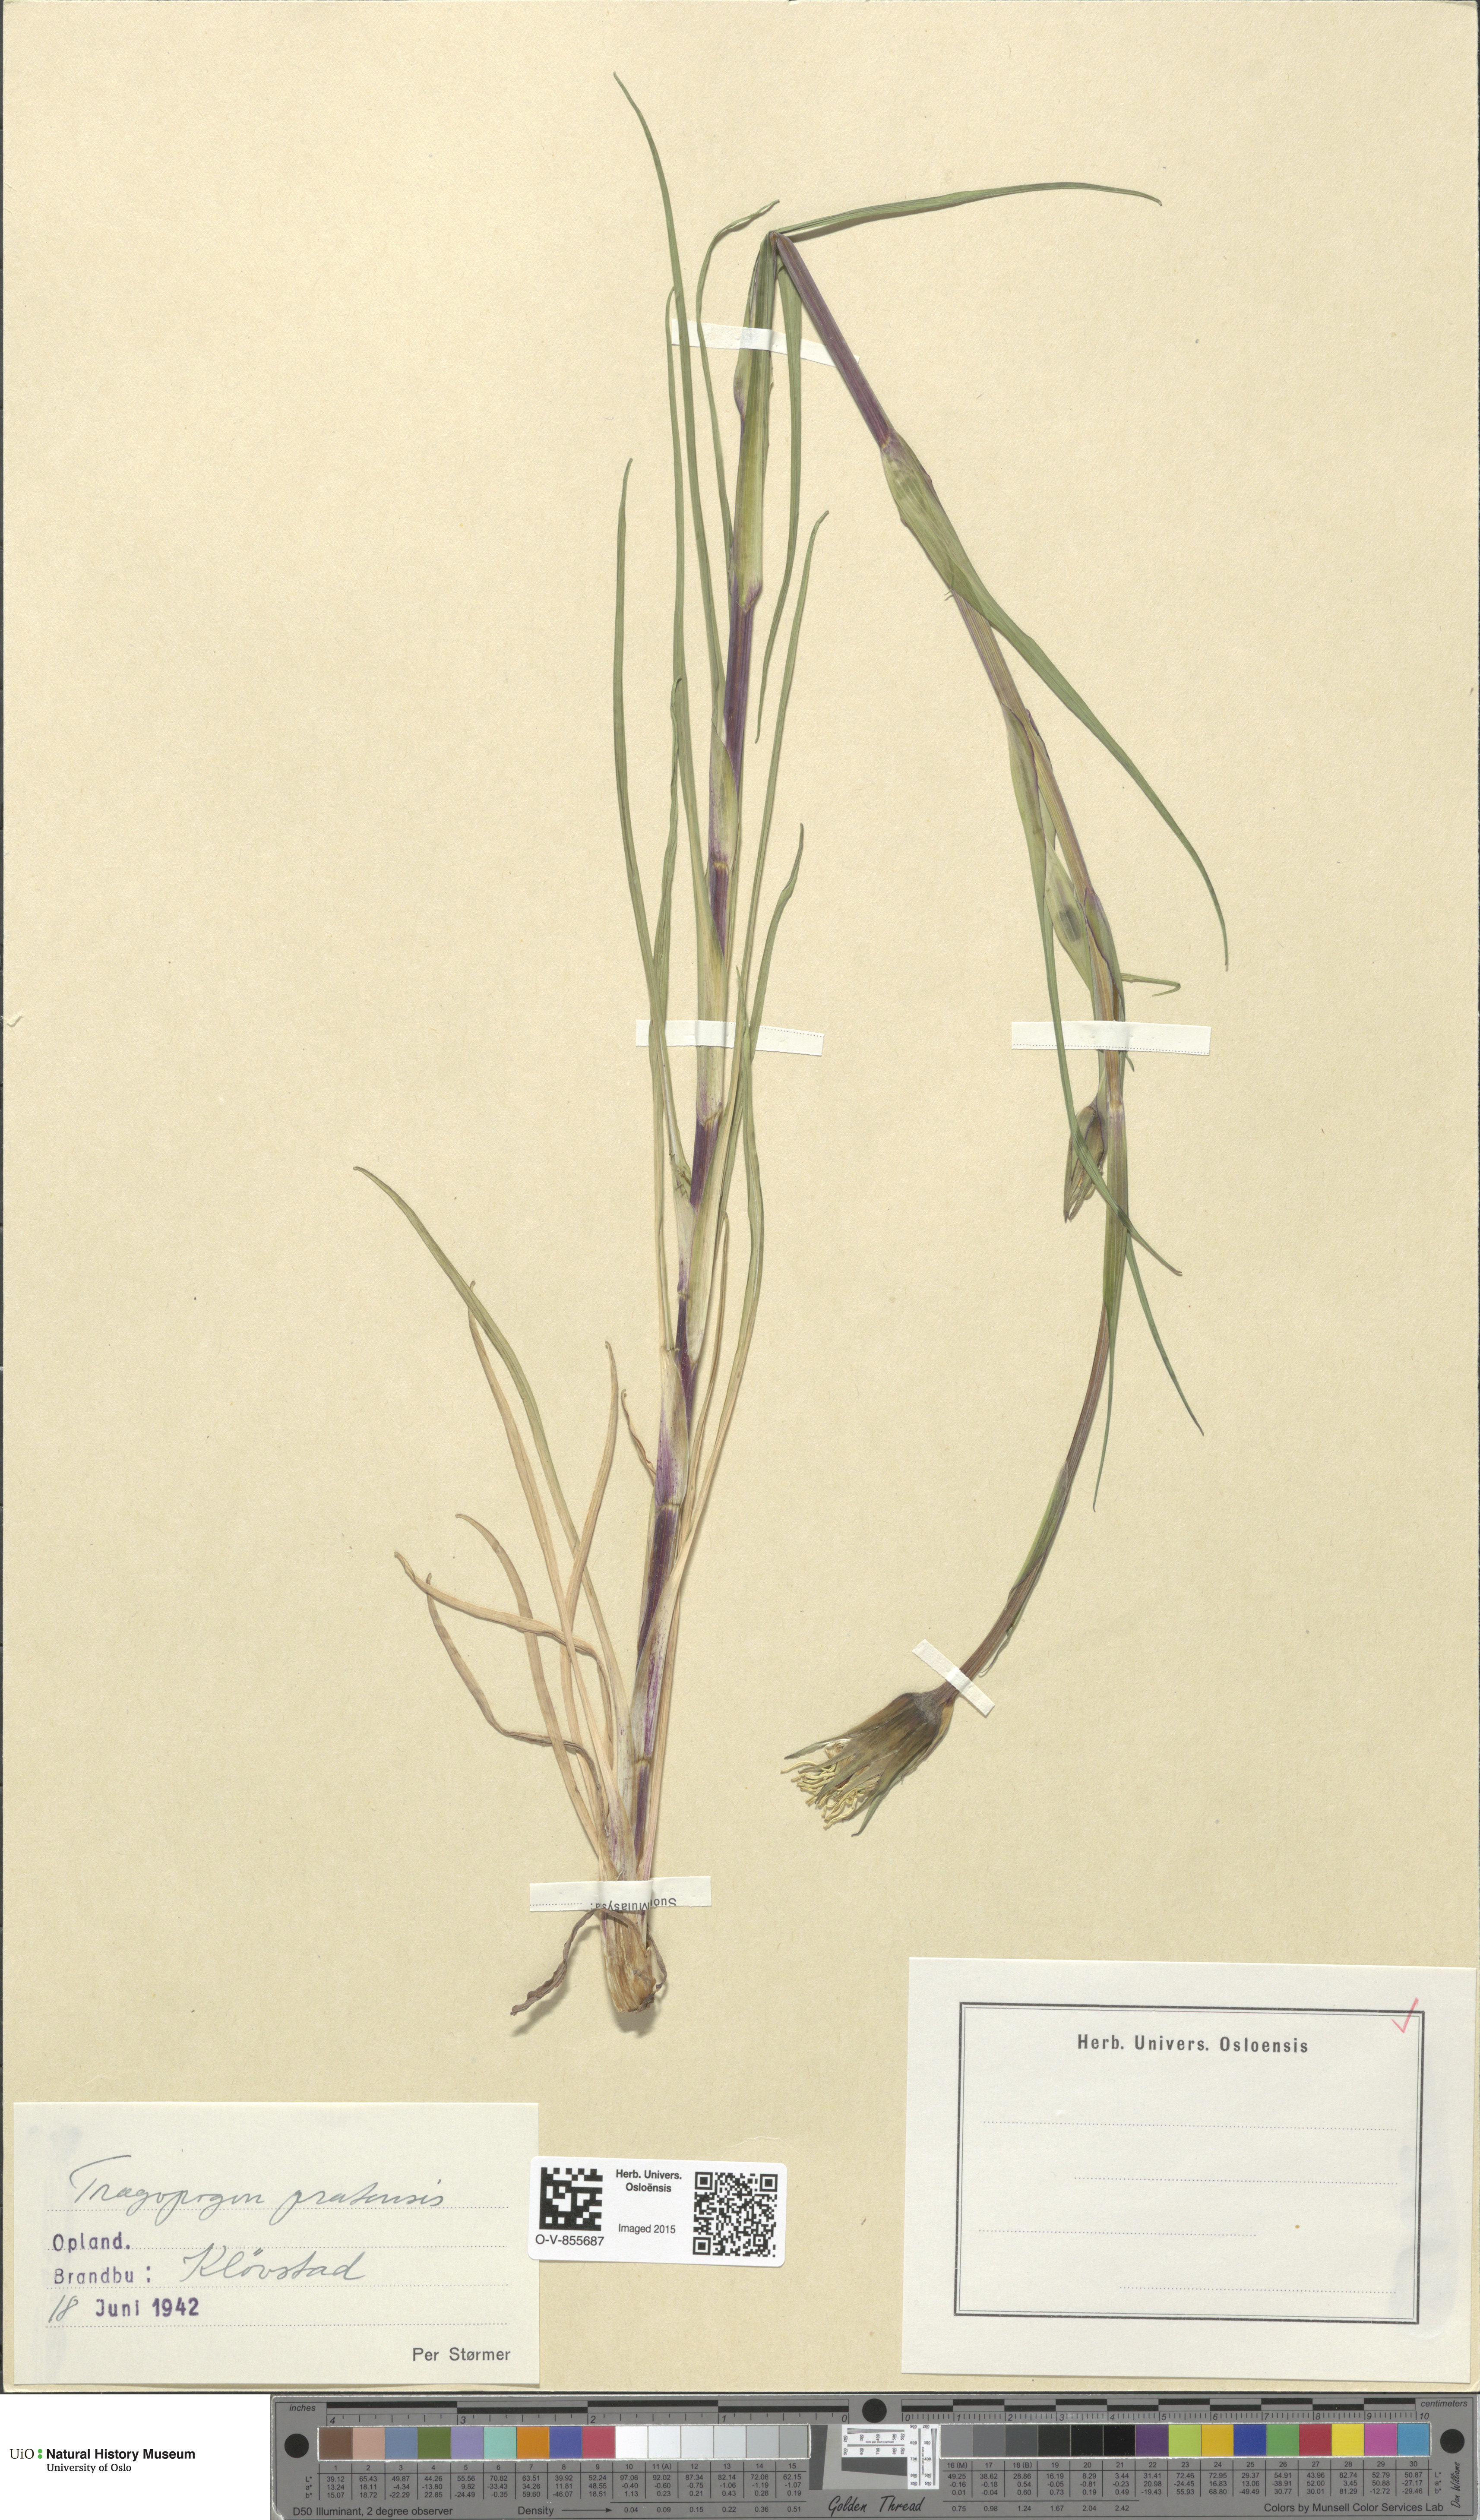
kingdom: Plantae
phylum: Tracheophyta
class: Magnoliopsida
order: Asterales
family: Asteraceae
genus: Tragopogon
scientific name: Tragopogon pratensis
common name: Goat's-beard
